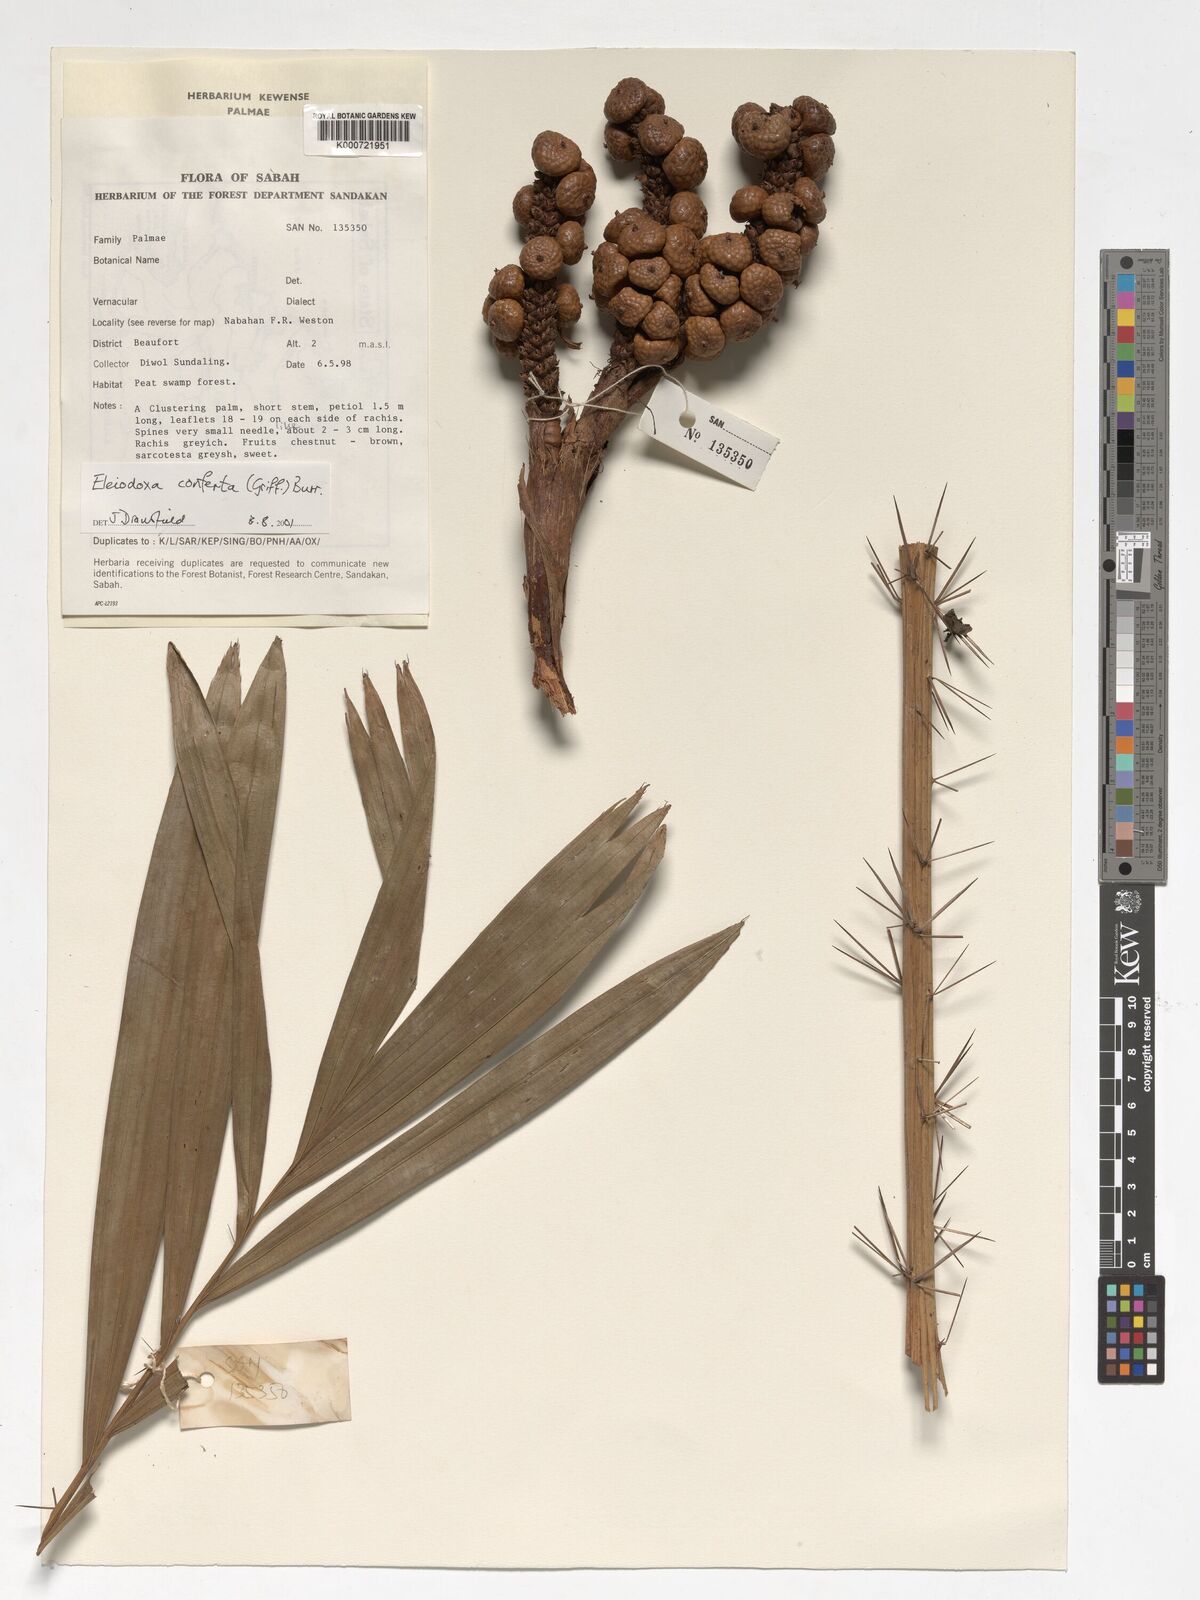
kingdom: Plantae
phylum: Tracheophyta
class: Liliopsida
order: Arecales
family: Arecaceae
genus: Eleiodoxa
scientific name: Eleiodoxa conferta
